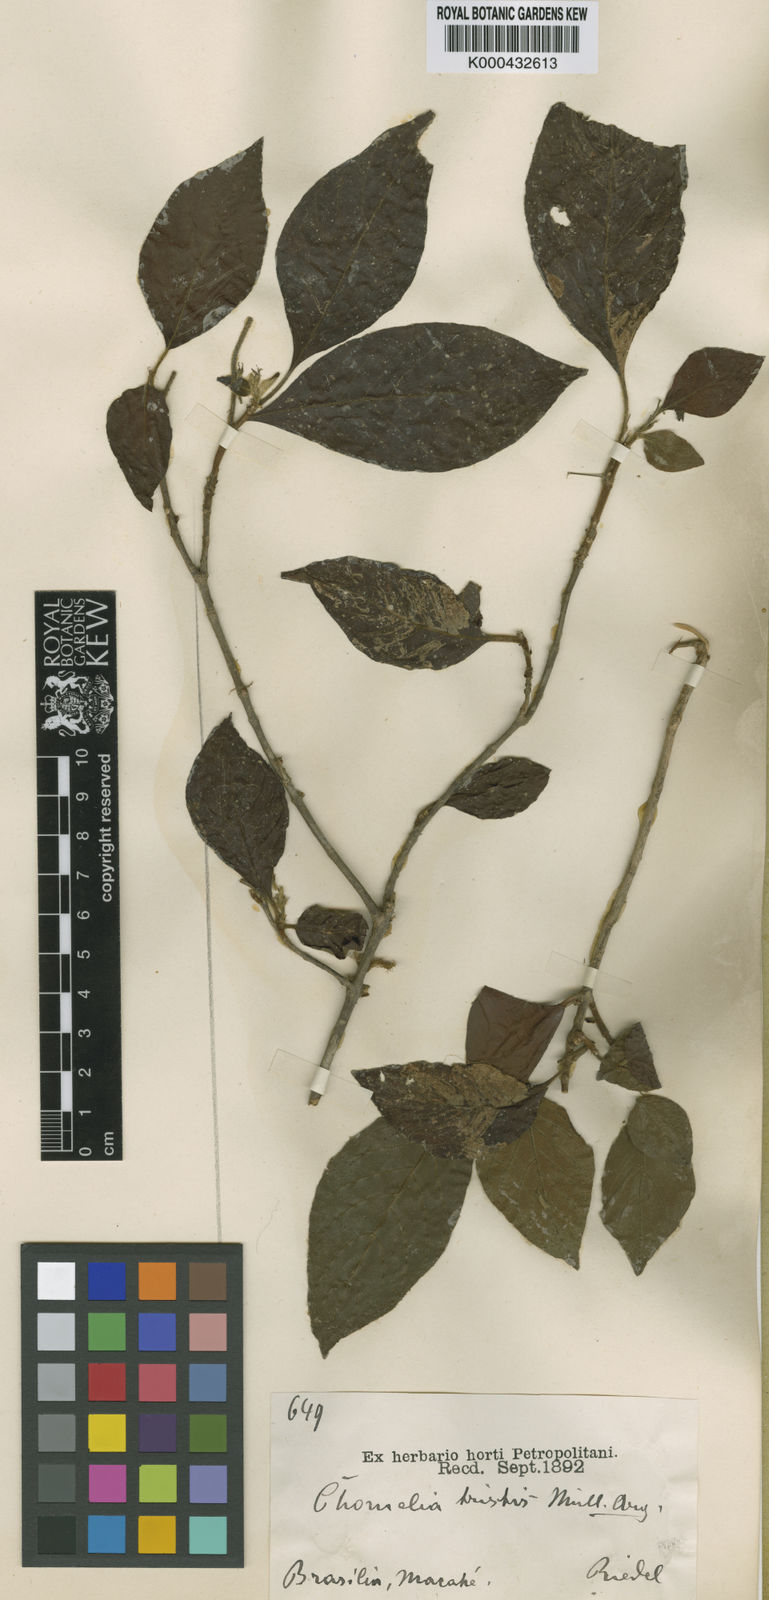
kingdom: Plantae
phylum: Tracheophyta
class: Magnoliopsida
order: Gentianales
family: Rubiaceae
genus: Chomelia
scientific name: Chomelia
